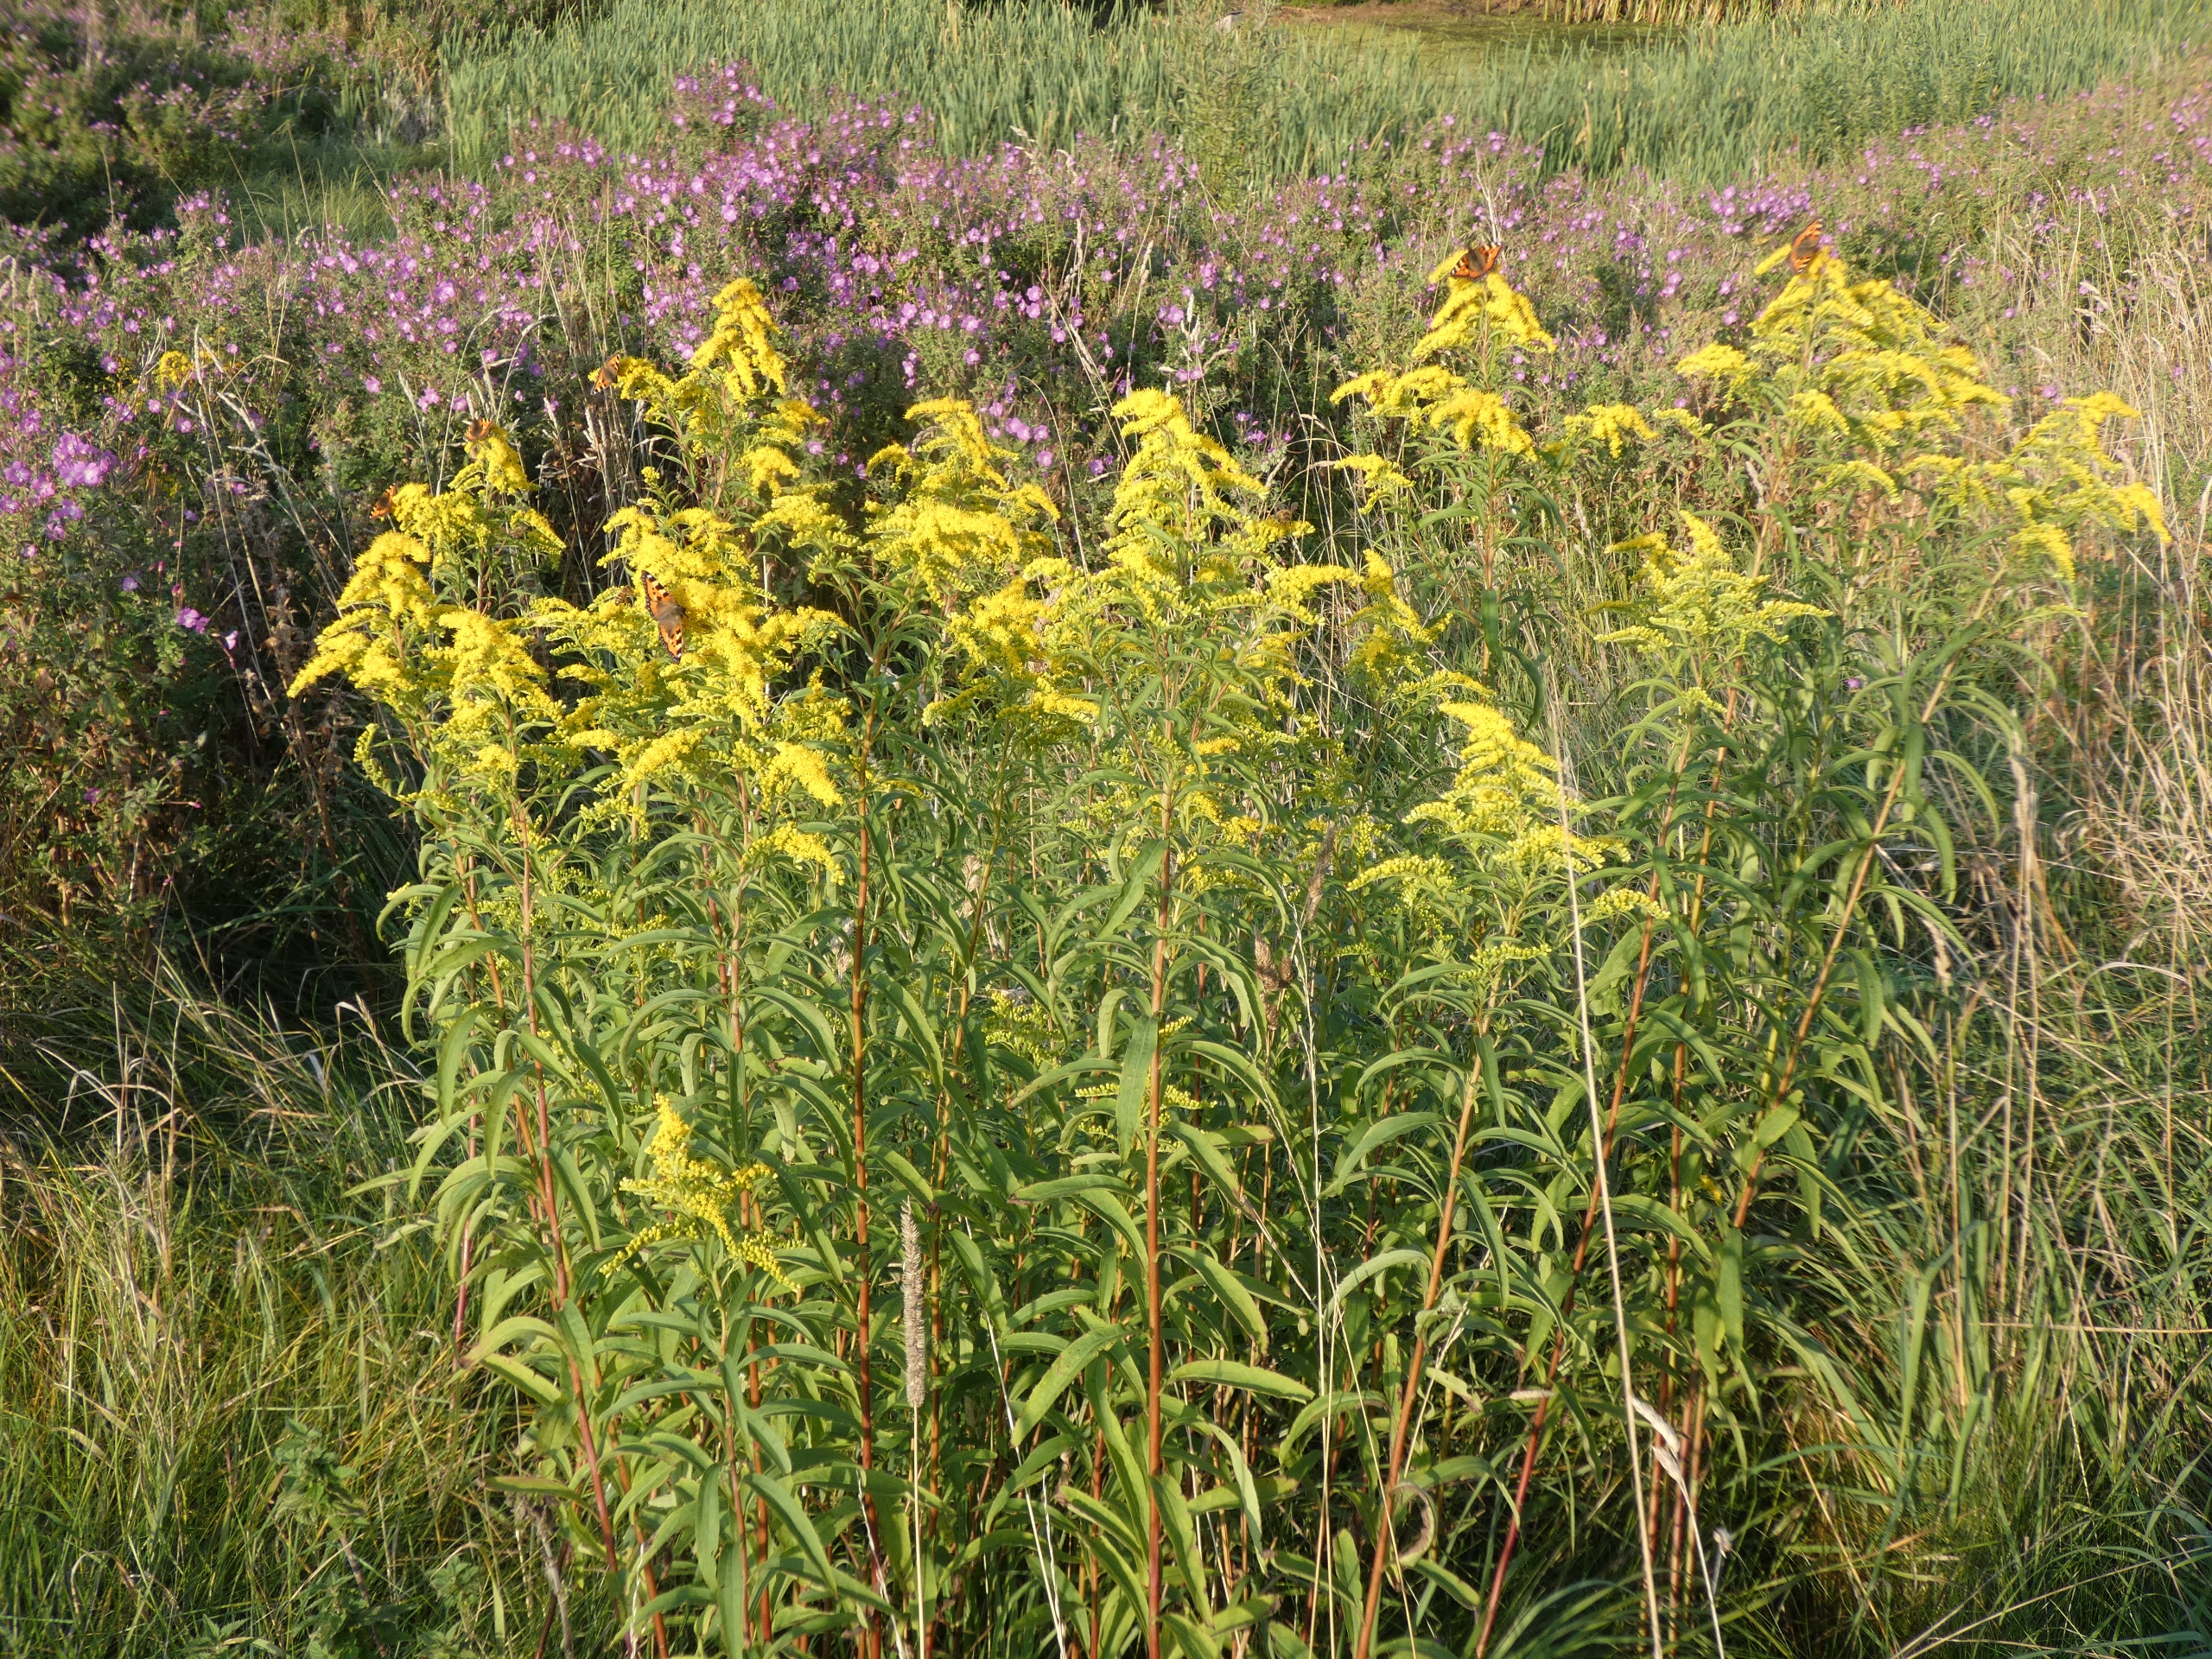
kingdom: Plantae
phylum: Tracheophyta
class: Magnoliopsida
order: Asterales
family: Asteraceae
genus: Solidago
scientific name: Solidago gigantea
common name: Sildig gyldenris
